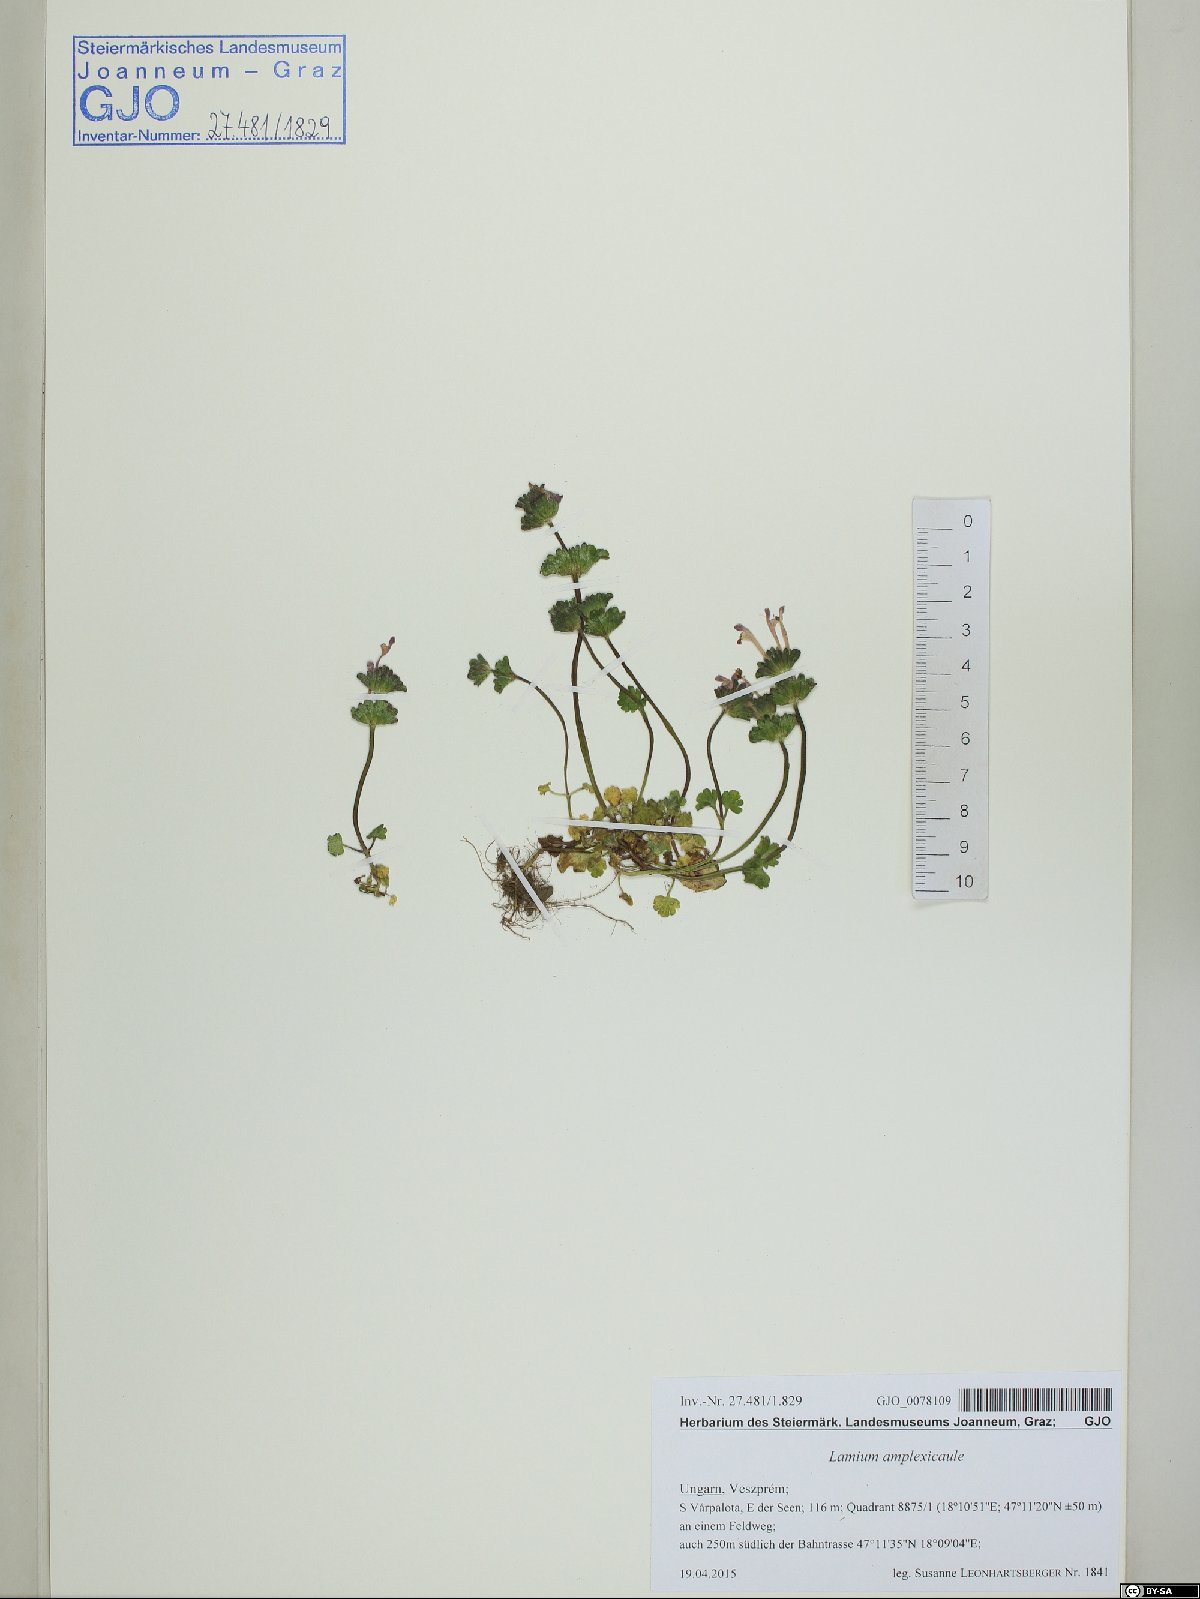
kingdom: Plantae
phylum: Tracheophyta
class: Magnoliopsida
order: Lamiales
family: Lamiaceae
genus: Lamium
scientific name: Lamium amplexicaule
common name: Henbit dead-nettle
